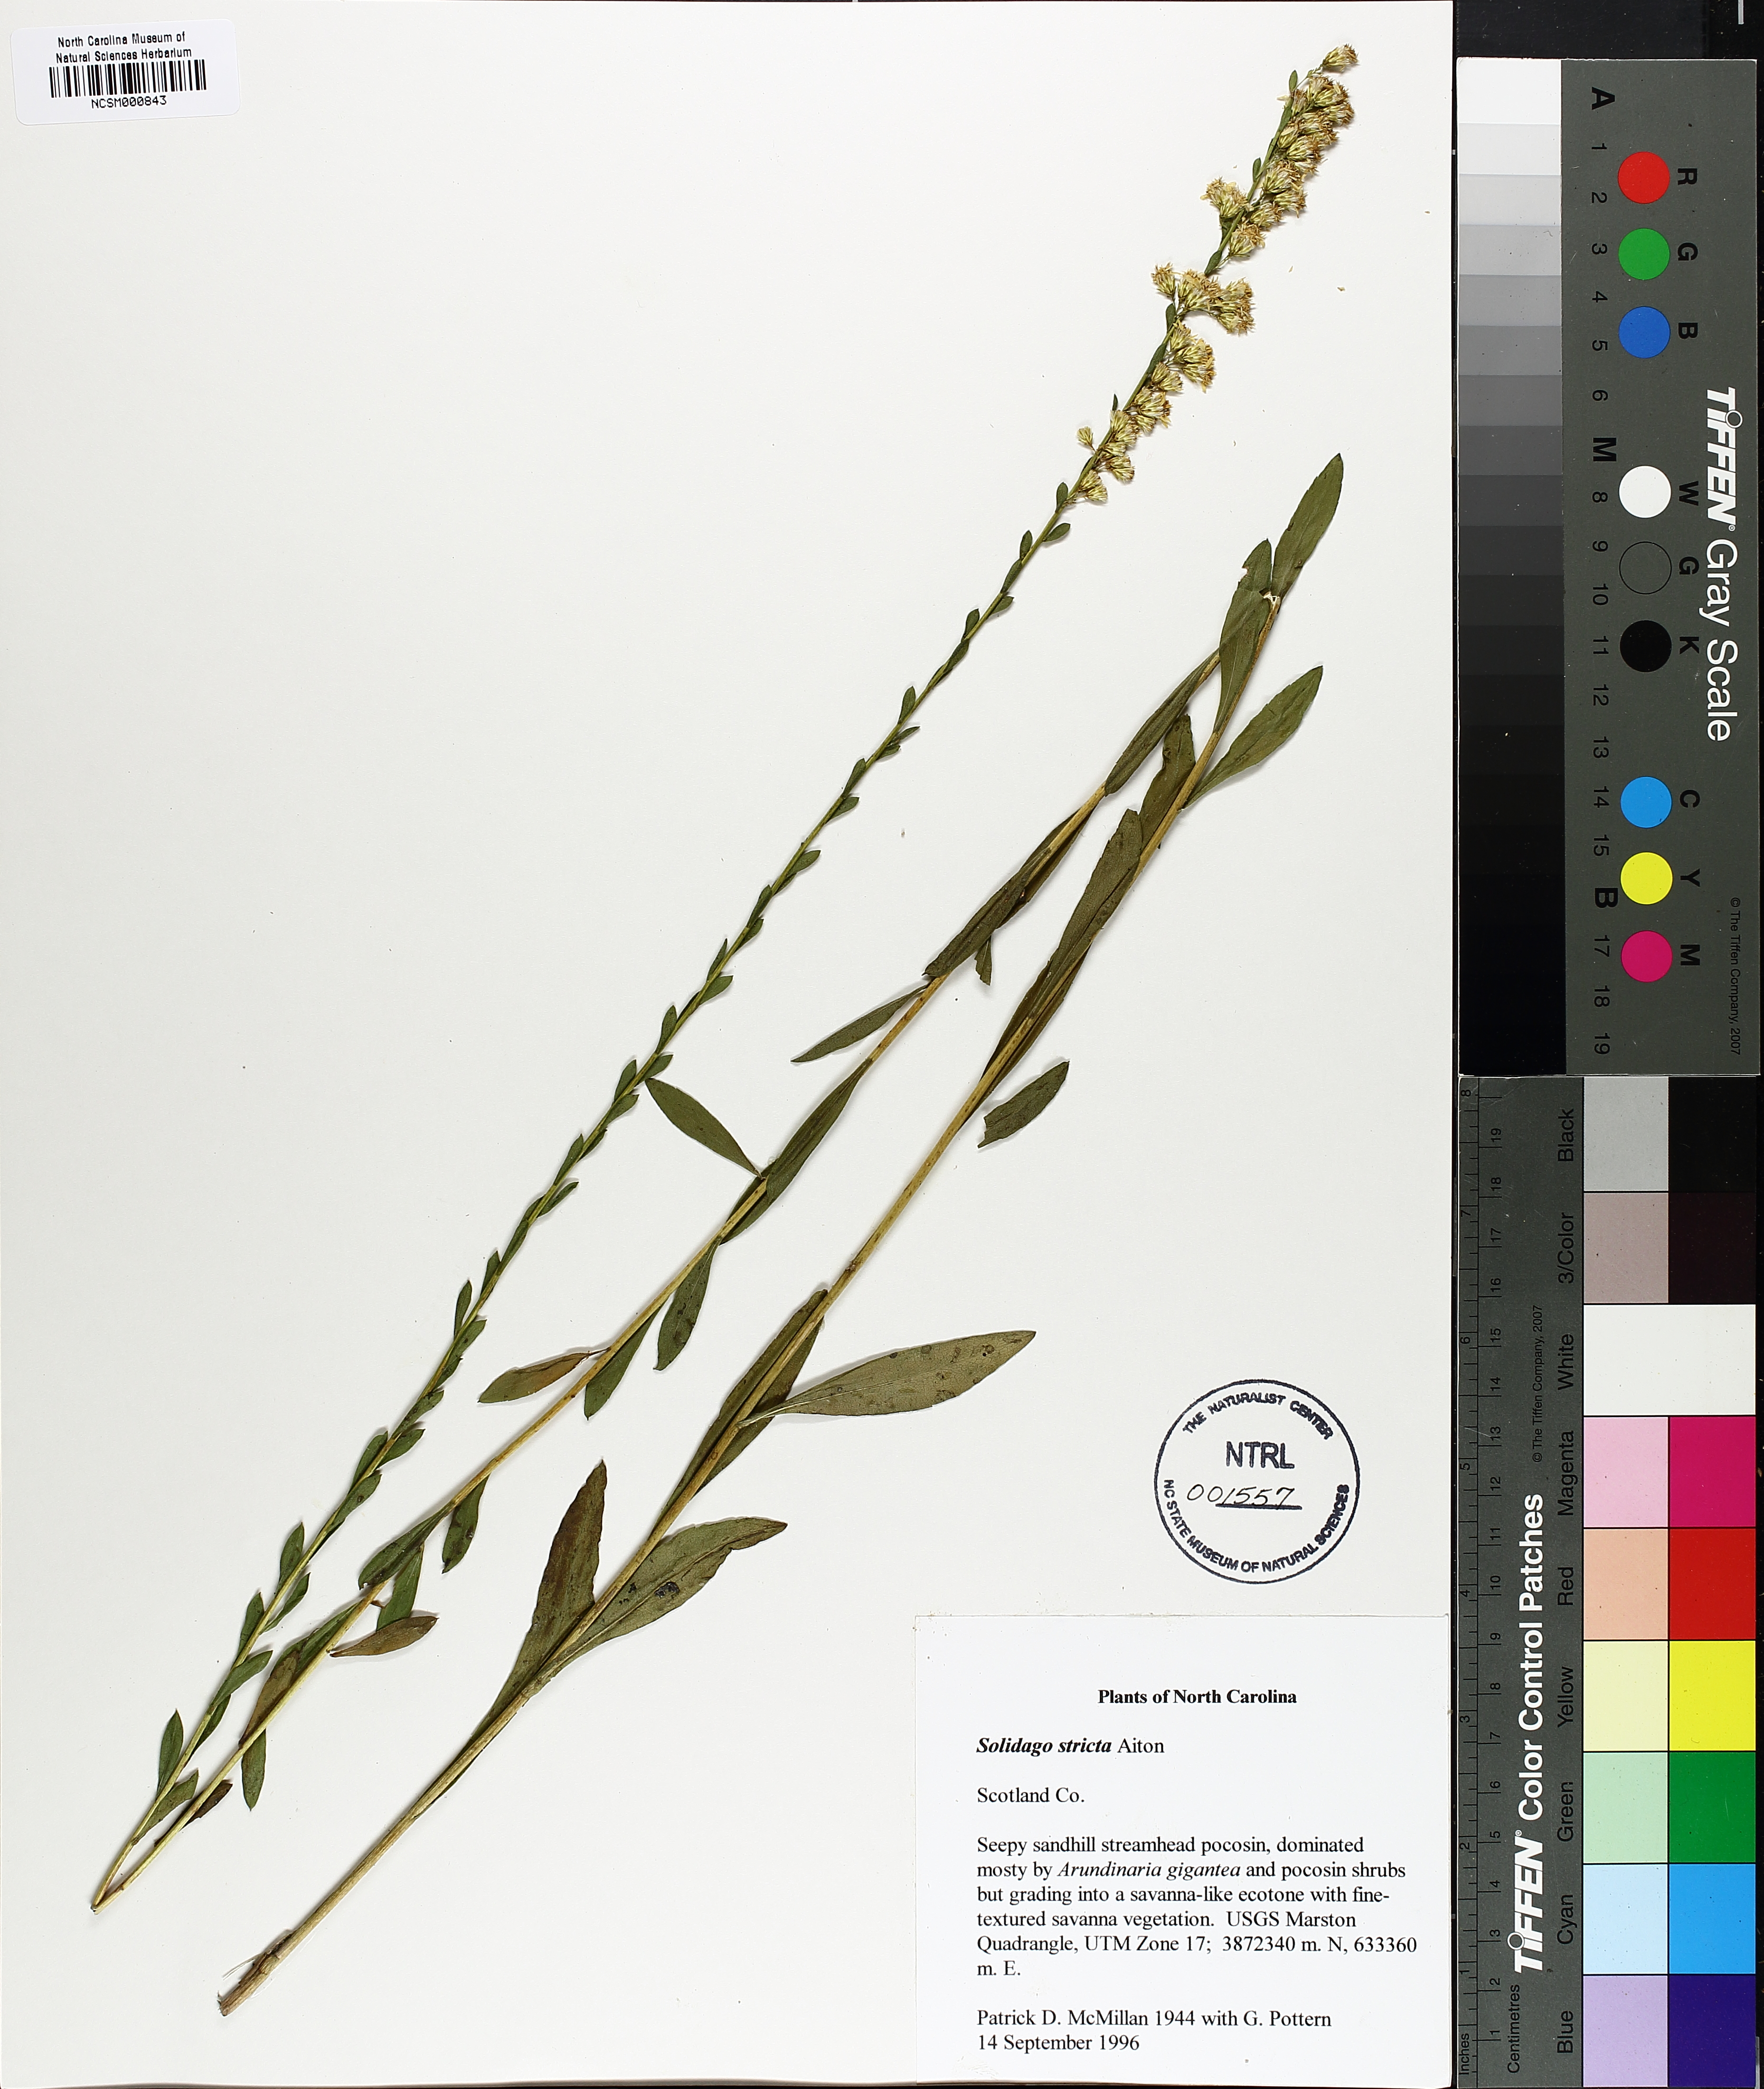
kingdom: Plantae
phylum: Tracheophyta
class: Magnoliopsida
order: Asterales
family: Asteraceae
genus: Solidago
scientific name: Solidago stricta
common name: Pine barren bog goldenrod
